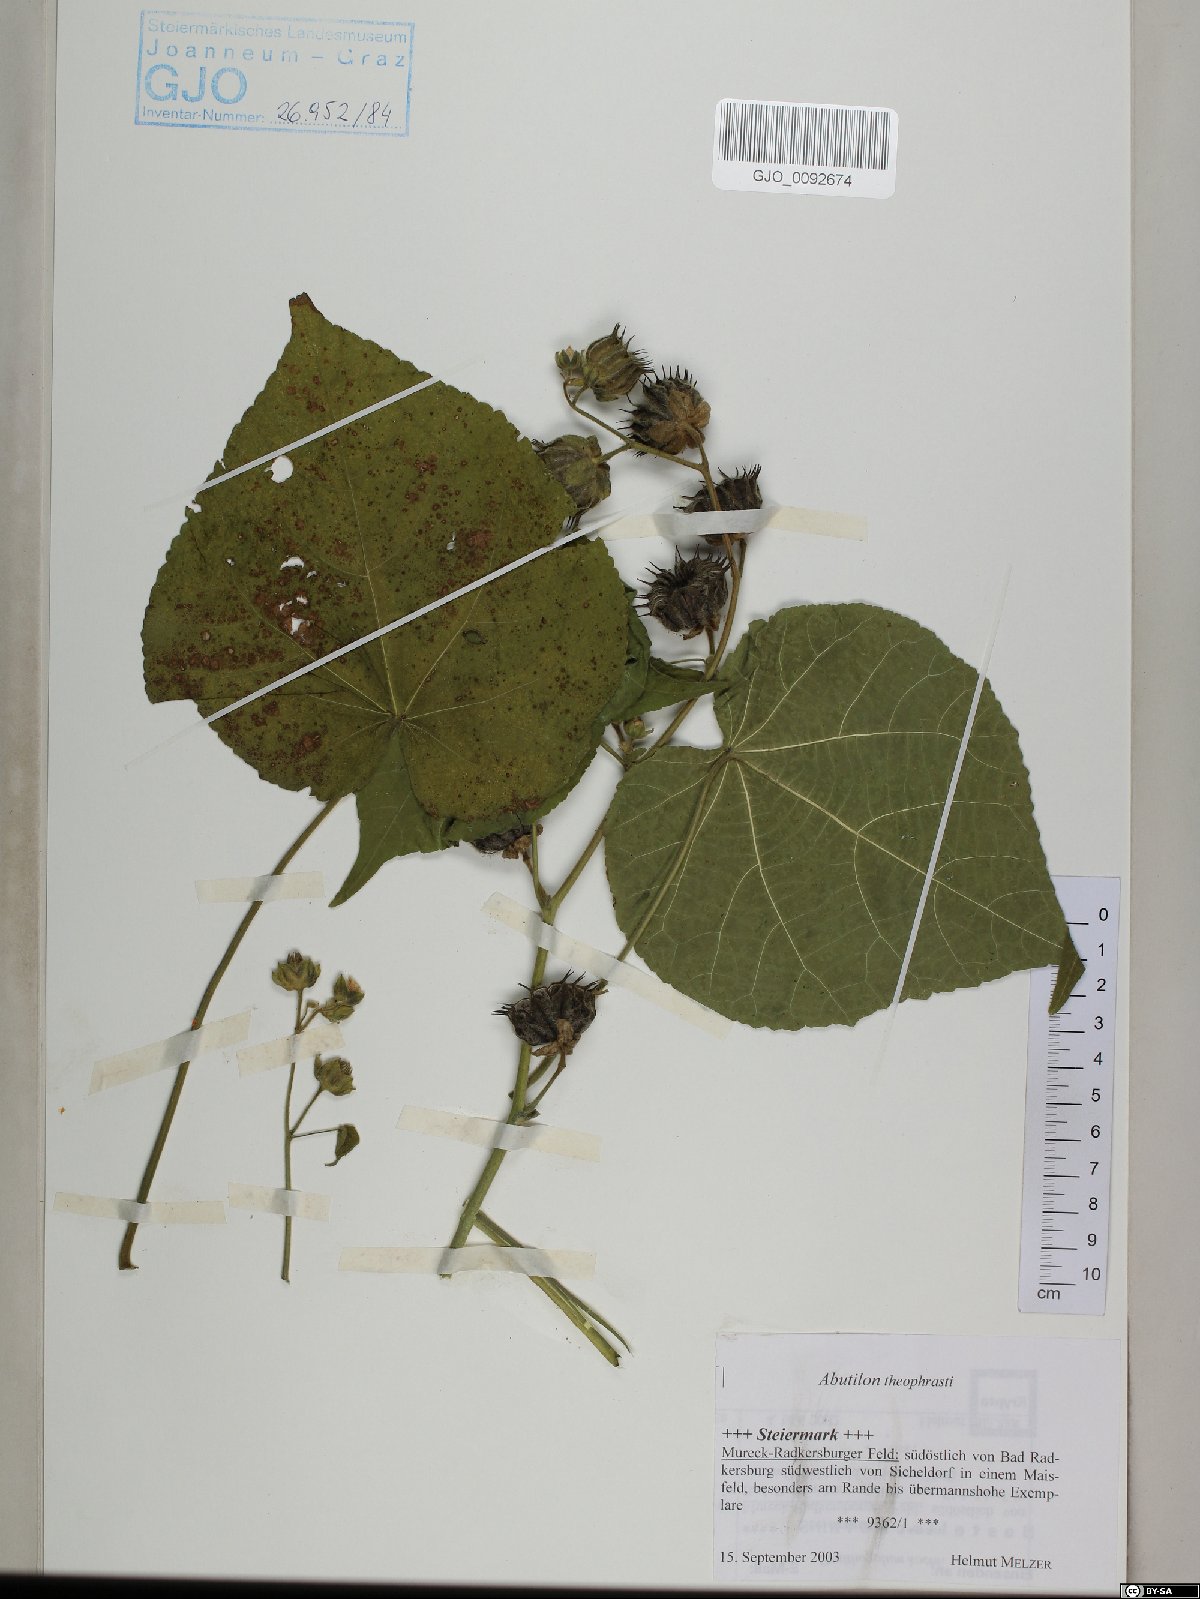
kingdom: Plantae
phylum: Tracheophyta
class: Magnoliopsida
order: Malvales
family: Malvaceae
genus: Abutilon
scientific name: Abutilon theophrasti
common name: Velvetleaf
